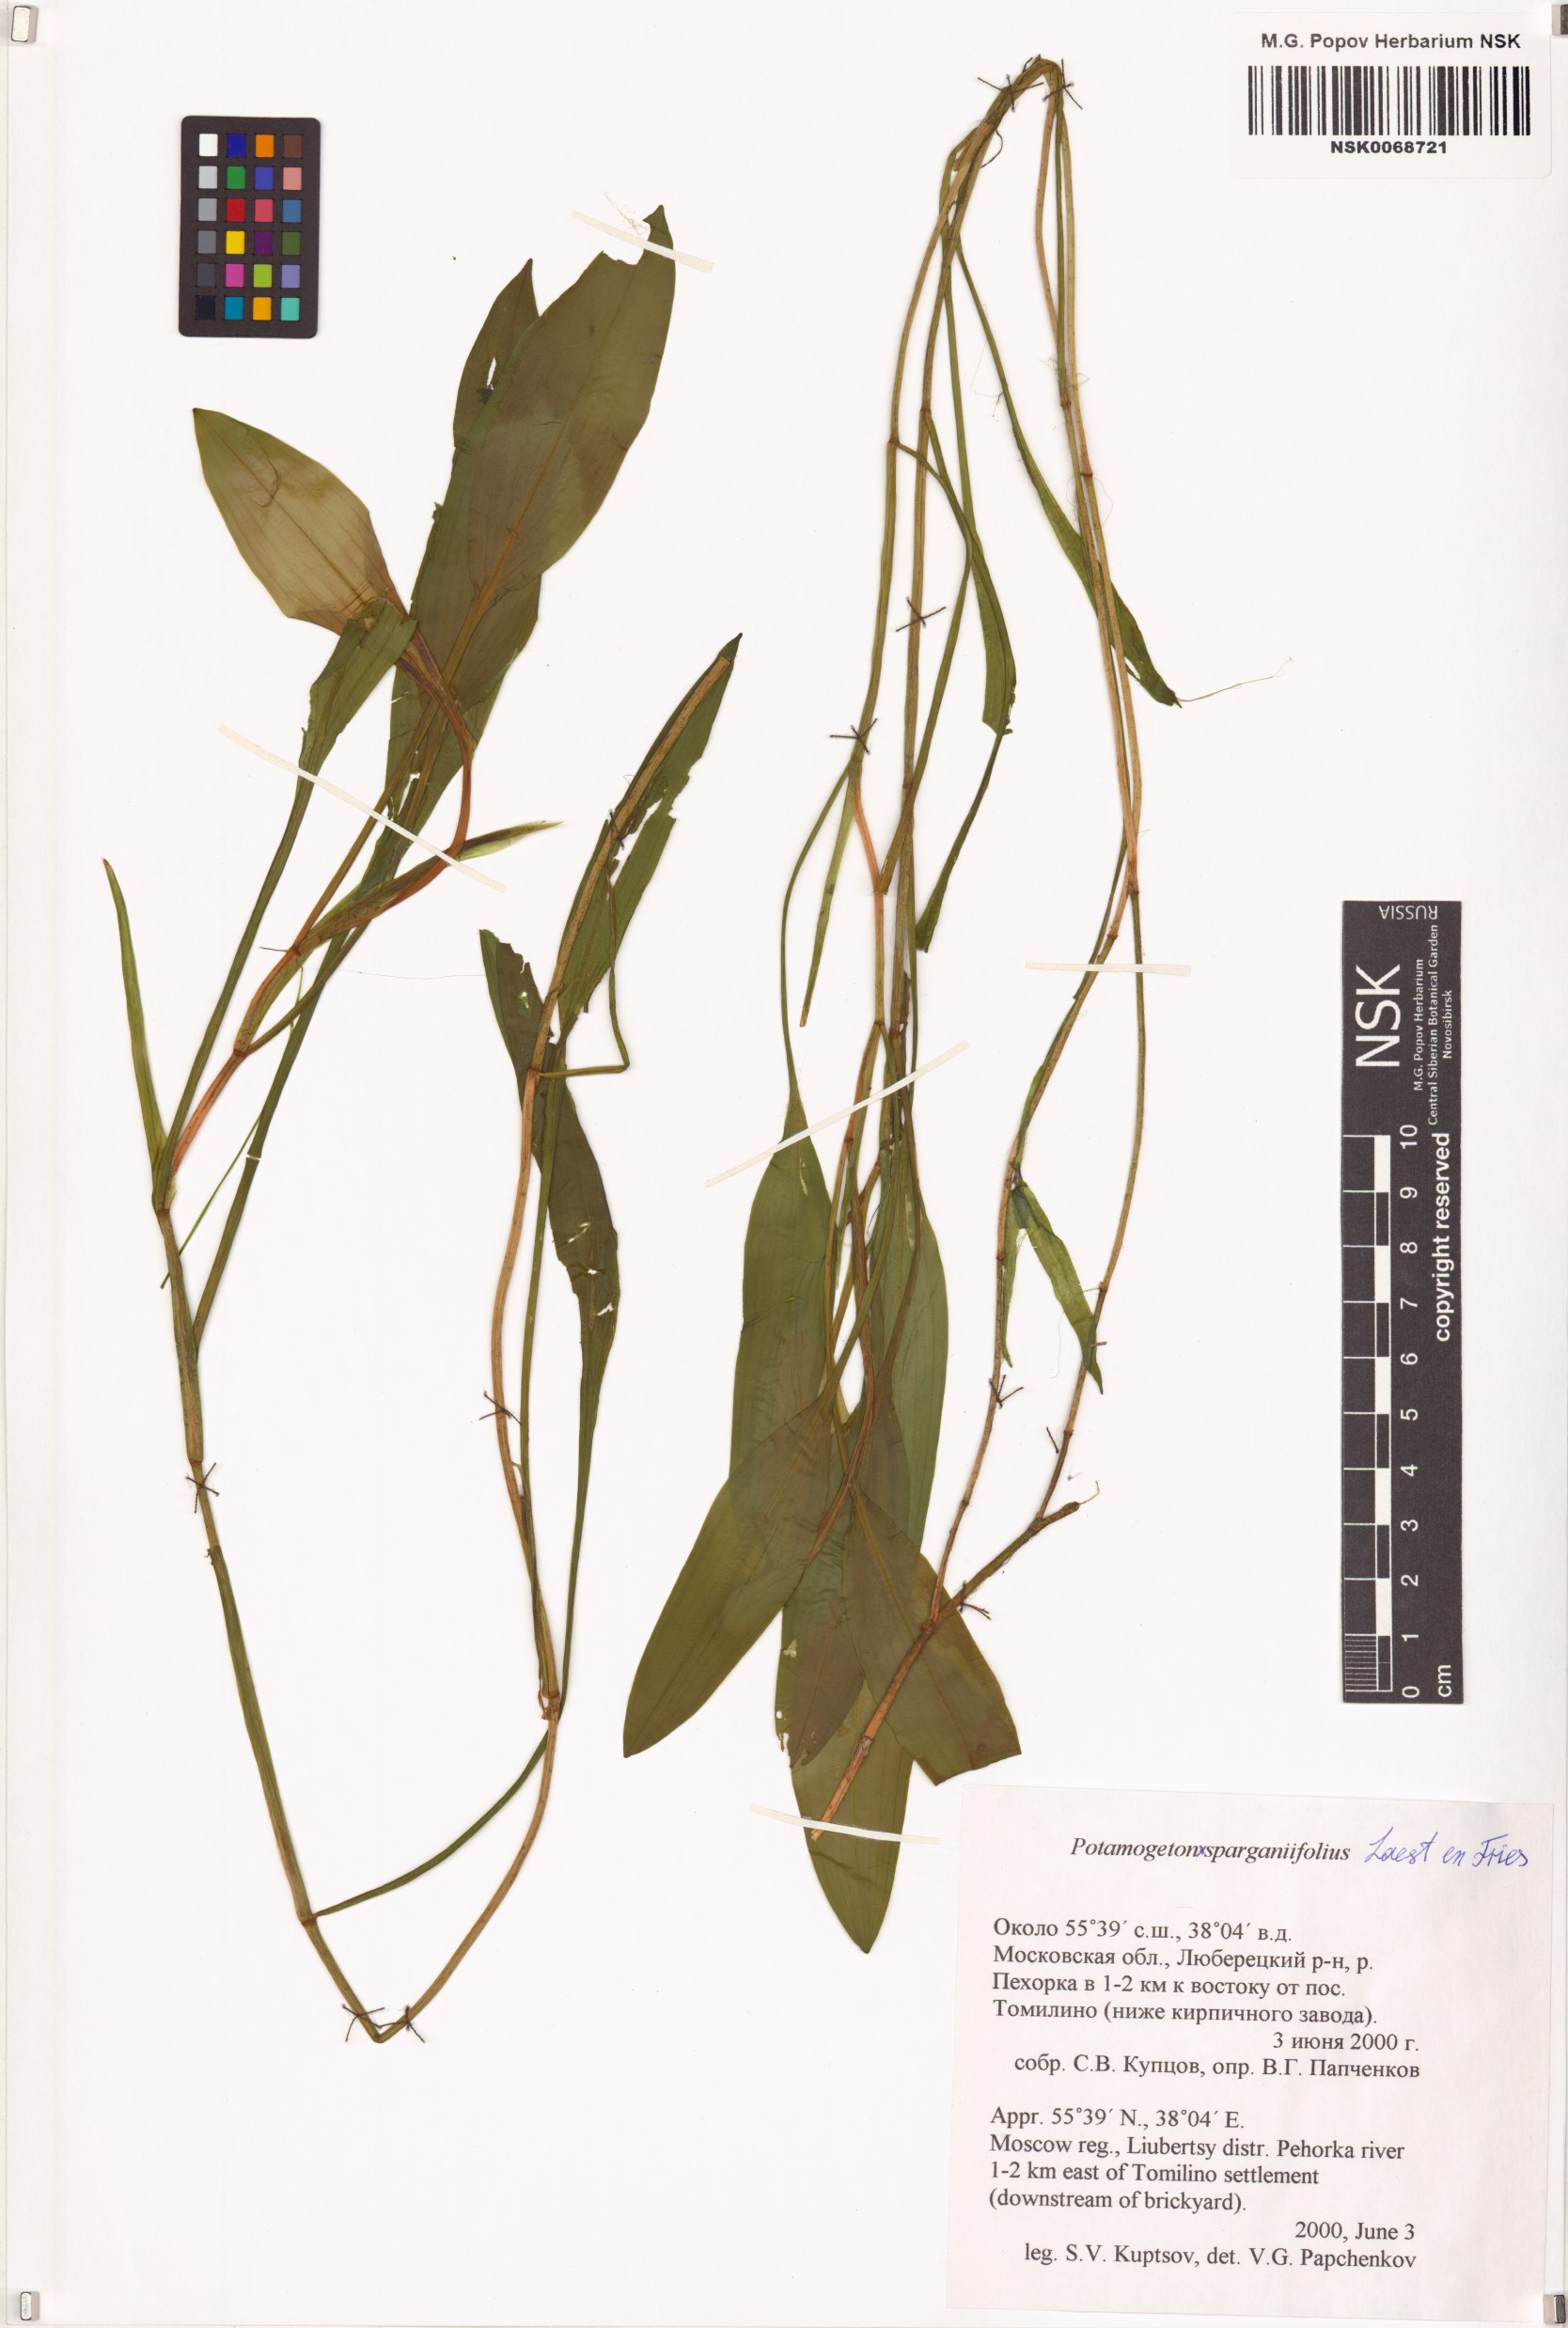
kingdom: Plantae
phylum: Tracheophyta
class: Liliopsida
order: Alismatales
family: Potamogetonaceae
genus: Potamogeton
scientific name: Potamogeton sparganiifolius
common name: Burreed-like pondweed
